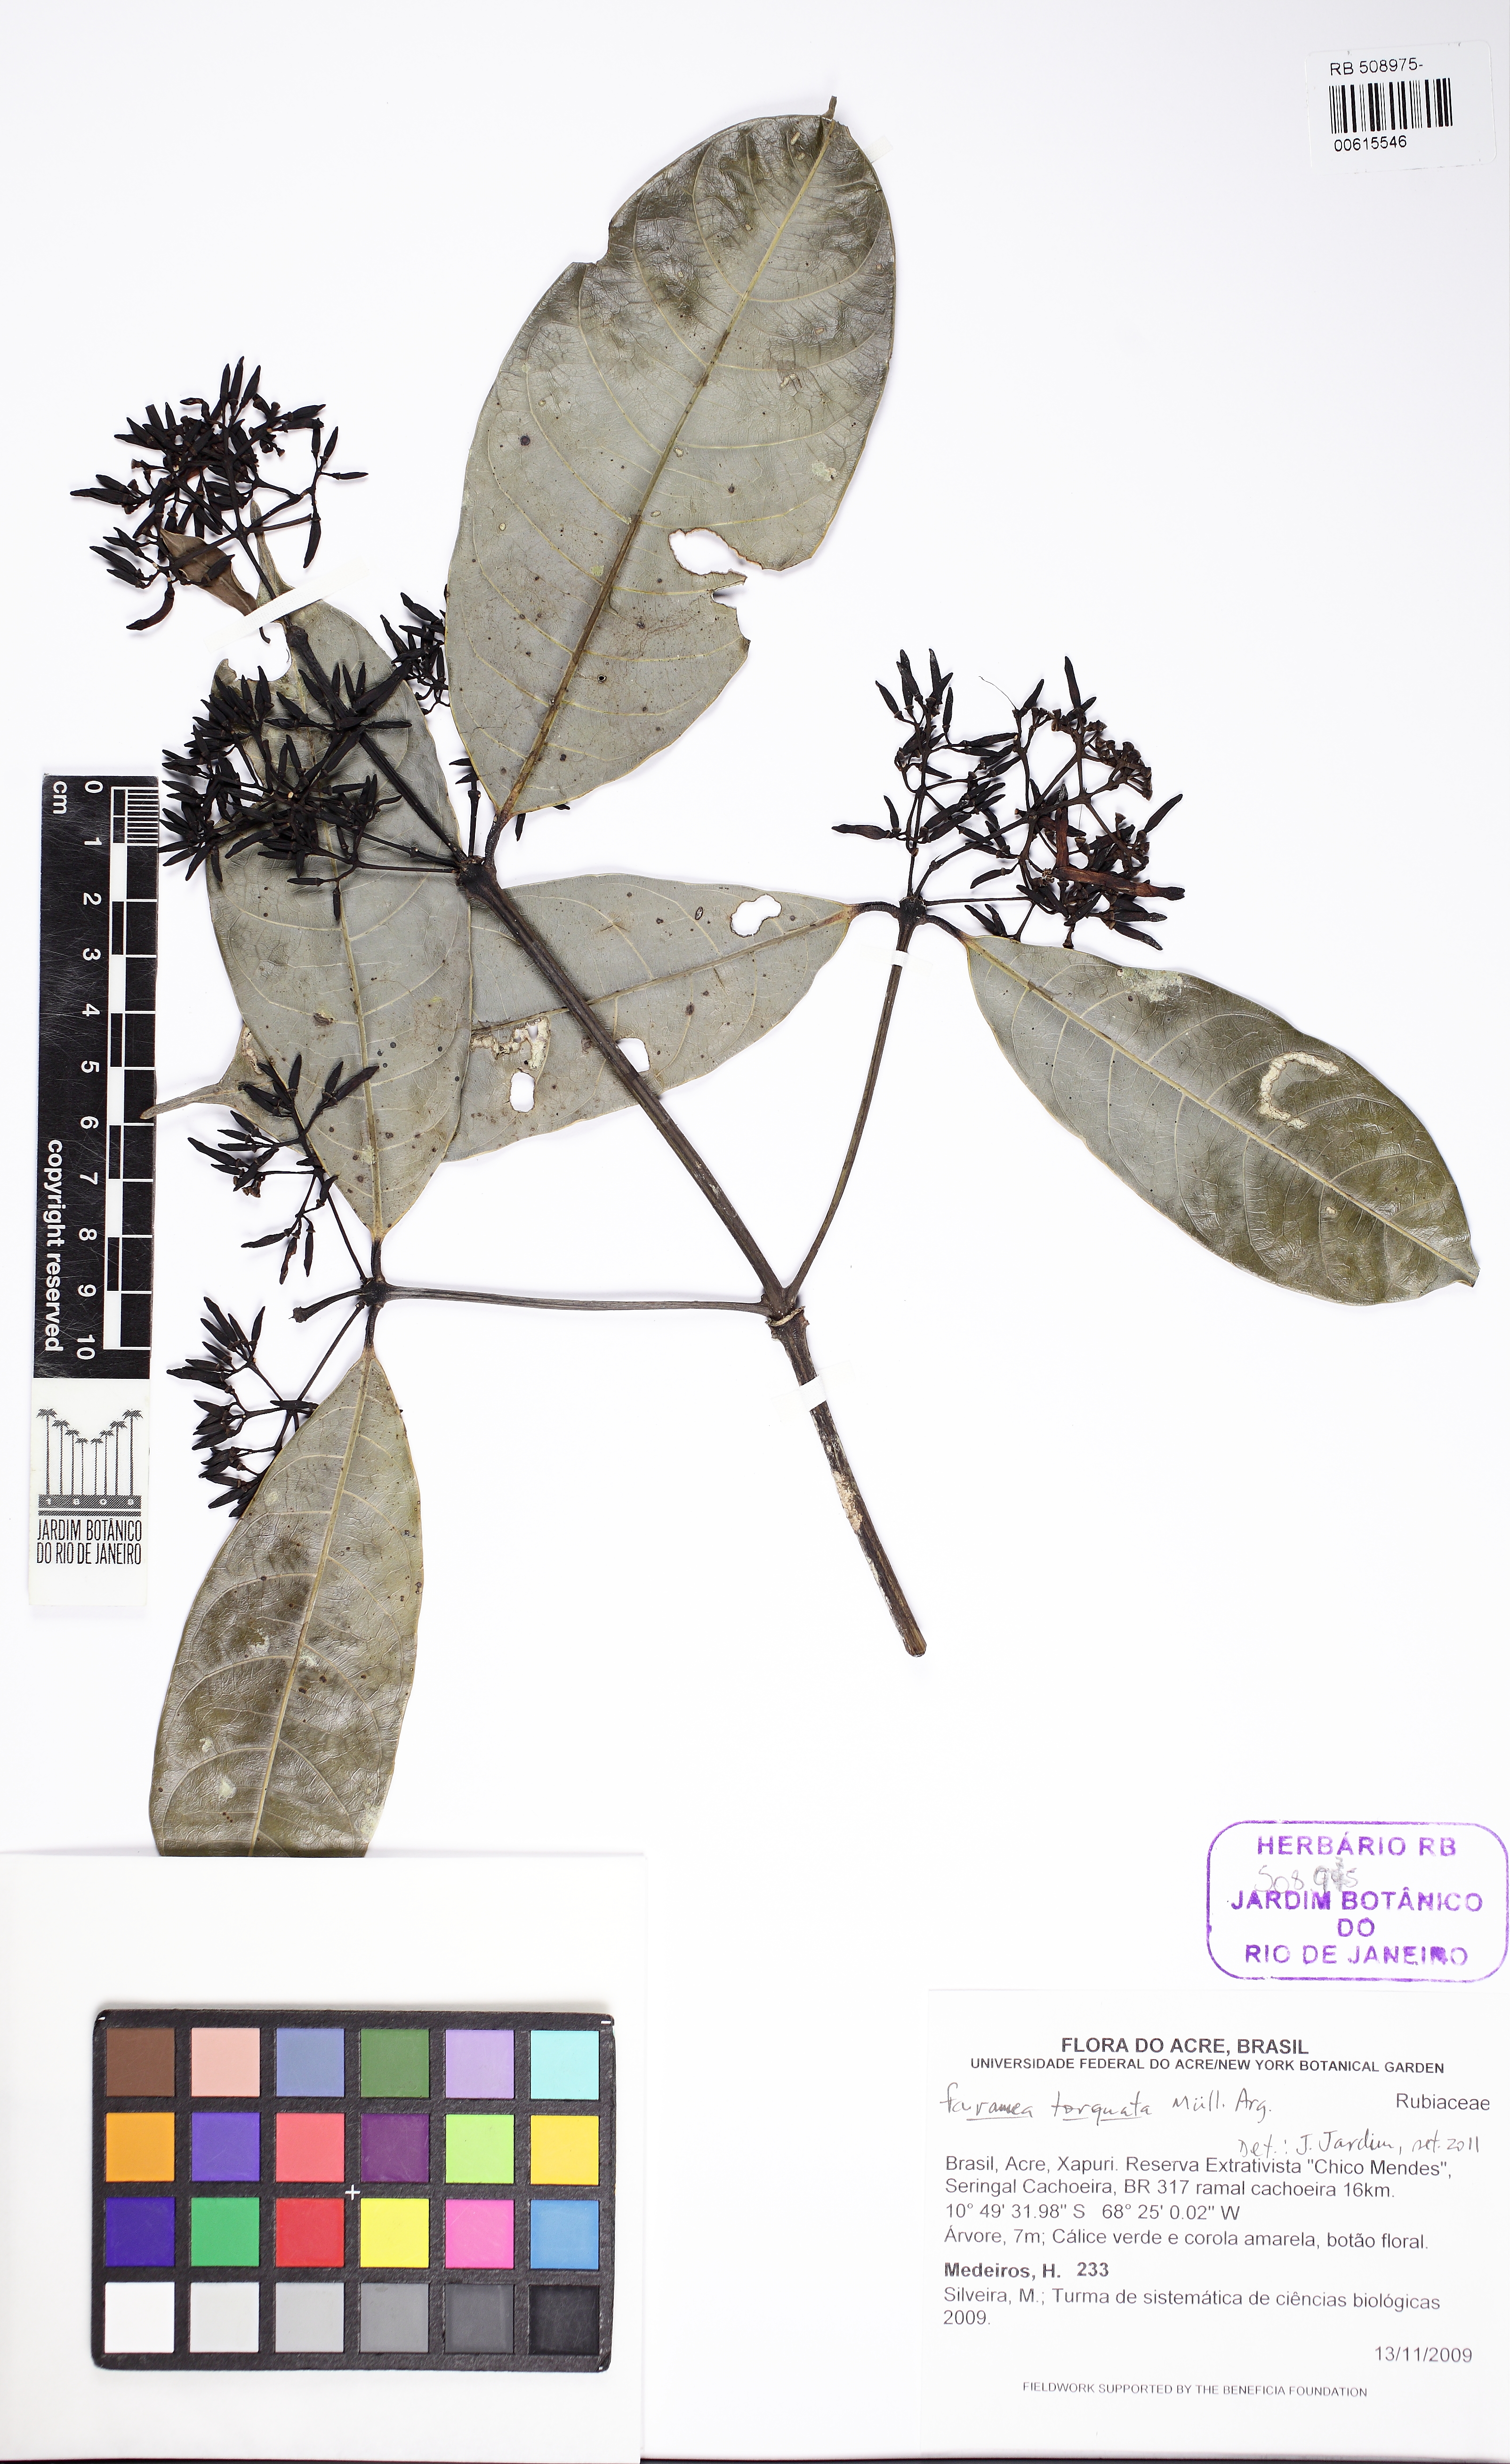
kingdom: Plantae
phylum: Tracheophyta
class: Magnoliopsida
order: Gentianales
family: Rubiaceae
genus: Faramea
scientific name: Faramea torquata
